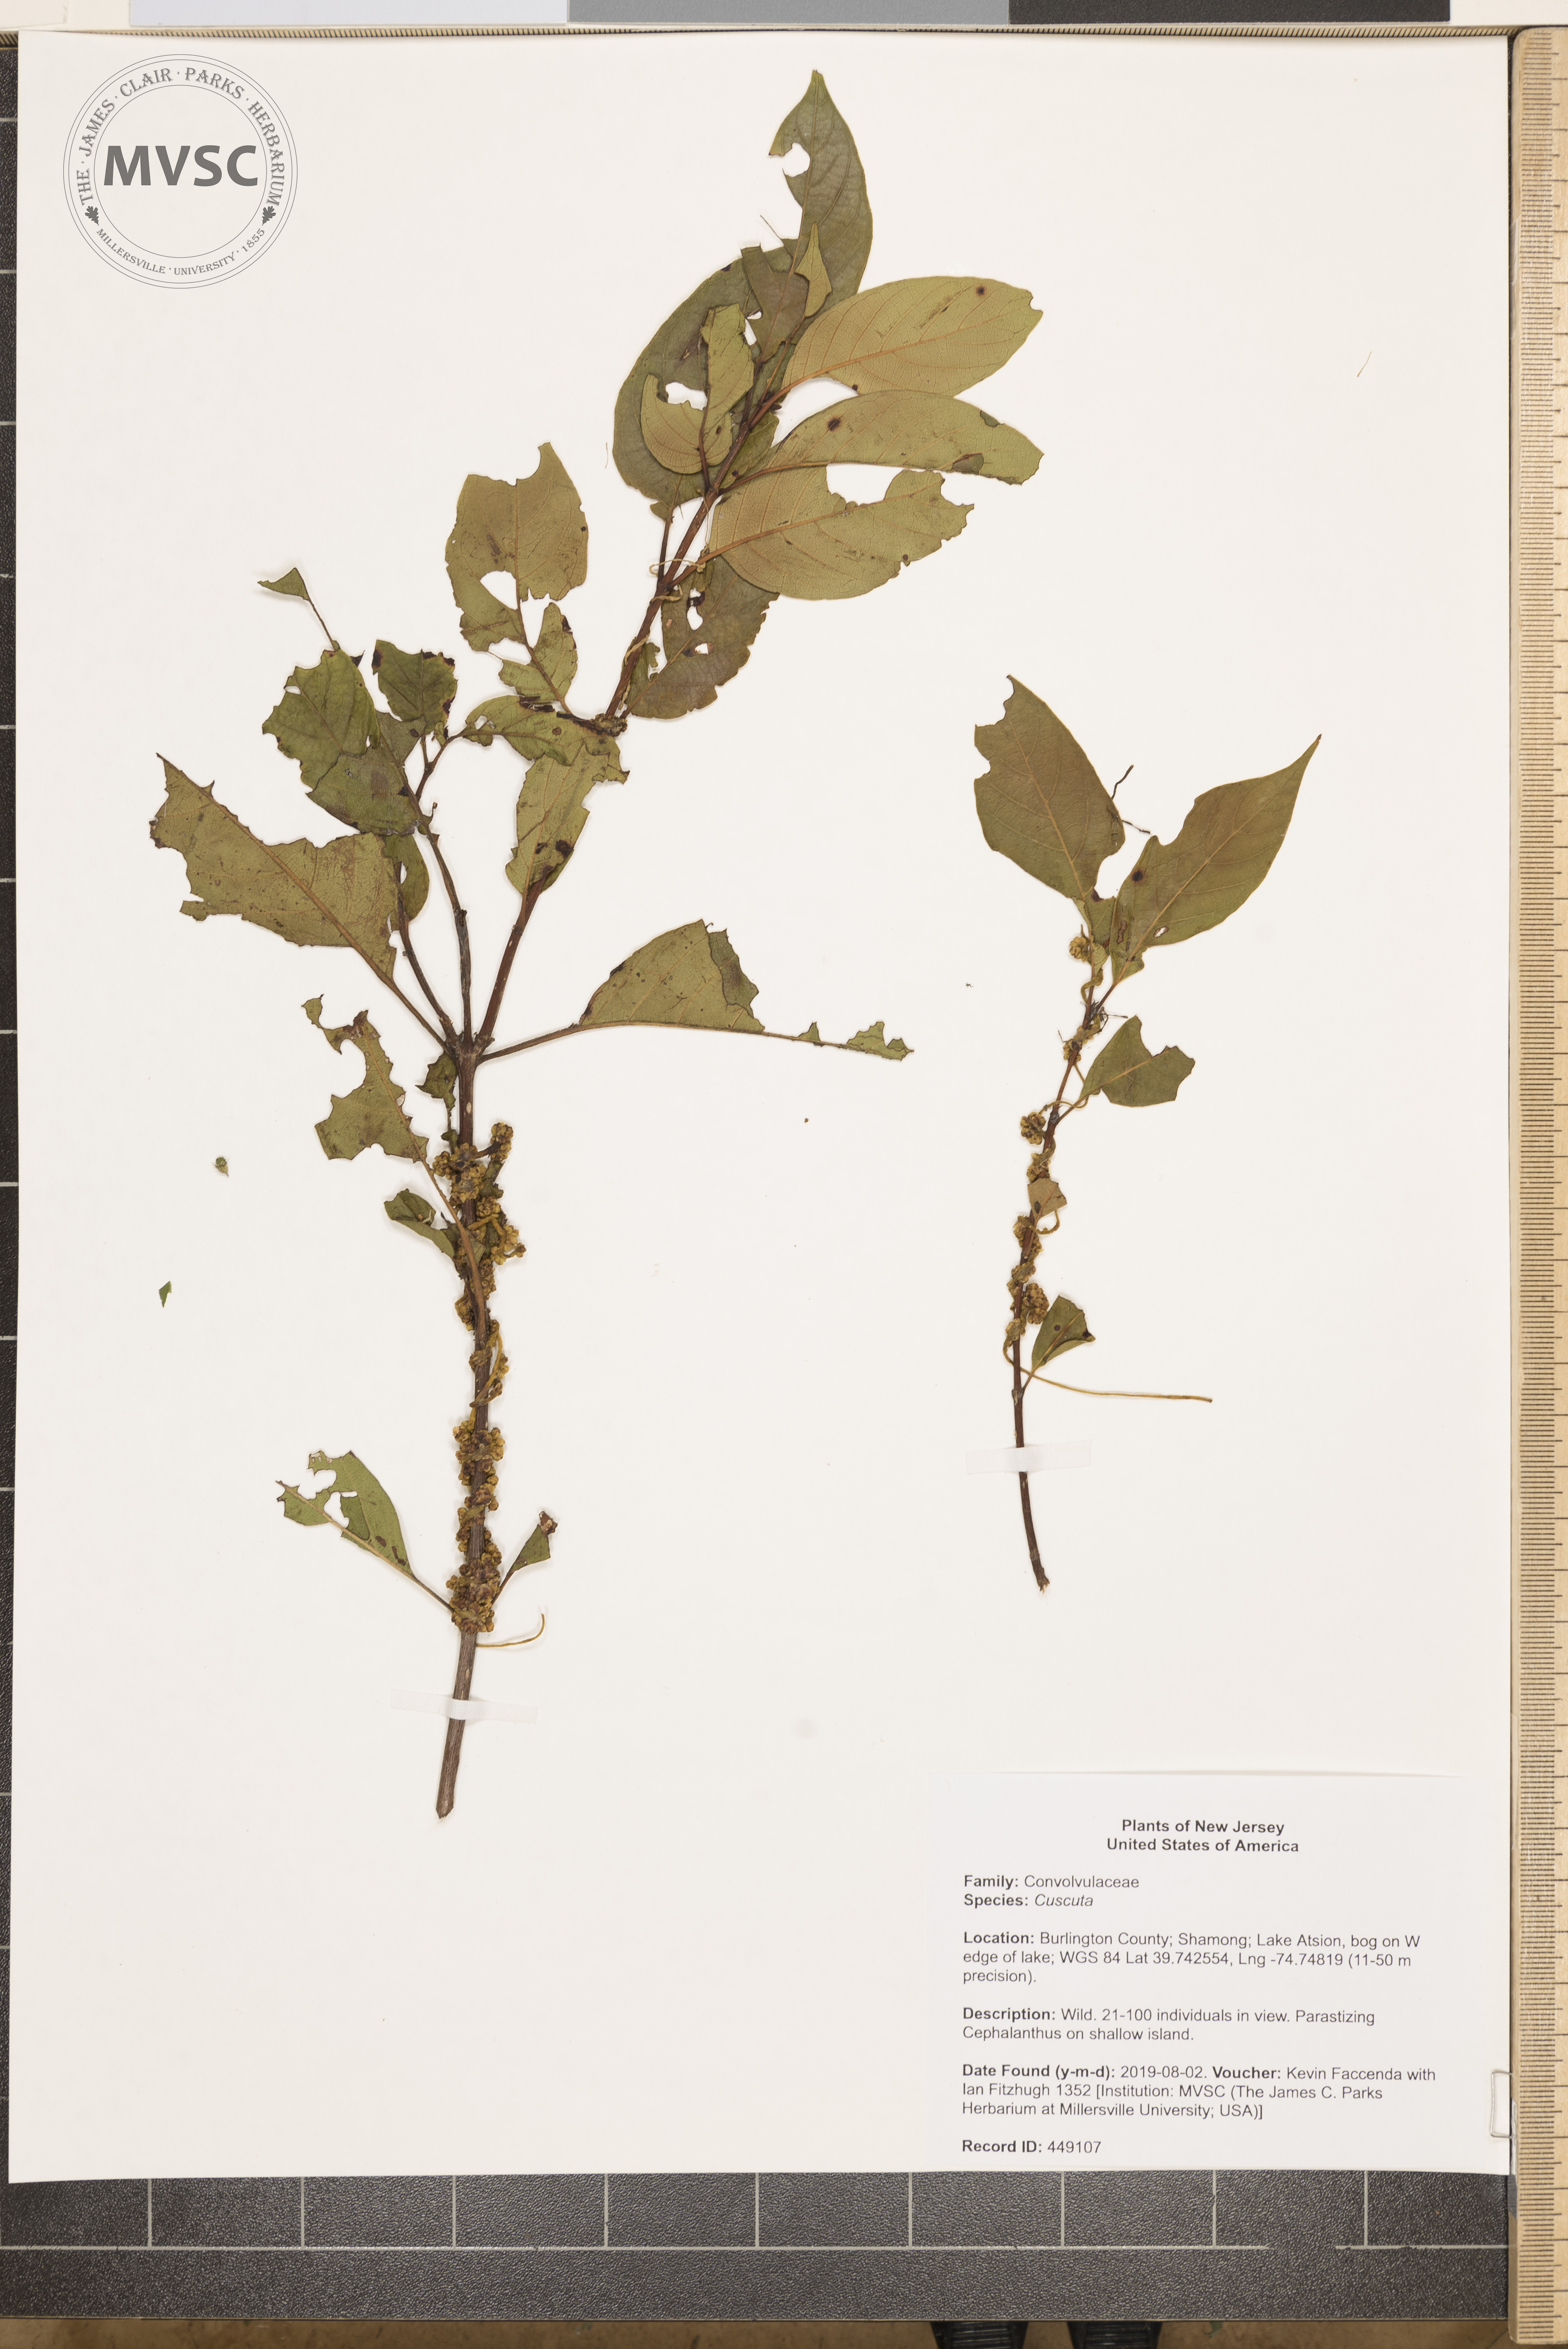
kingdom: Plantae
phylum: Tracheophyta
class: Magnoliopsida
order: Solanales
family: Convolvulaceae
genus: Cuscuta
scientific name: Cuscuta
